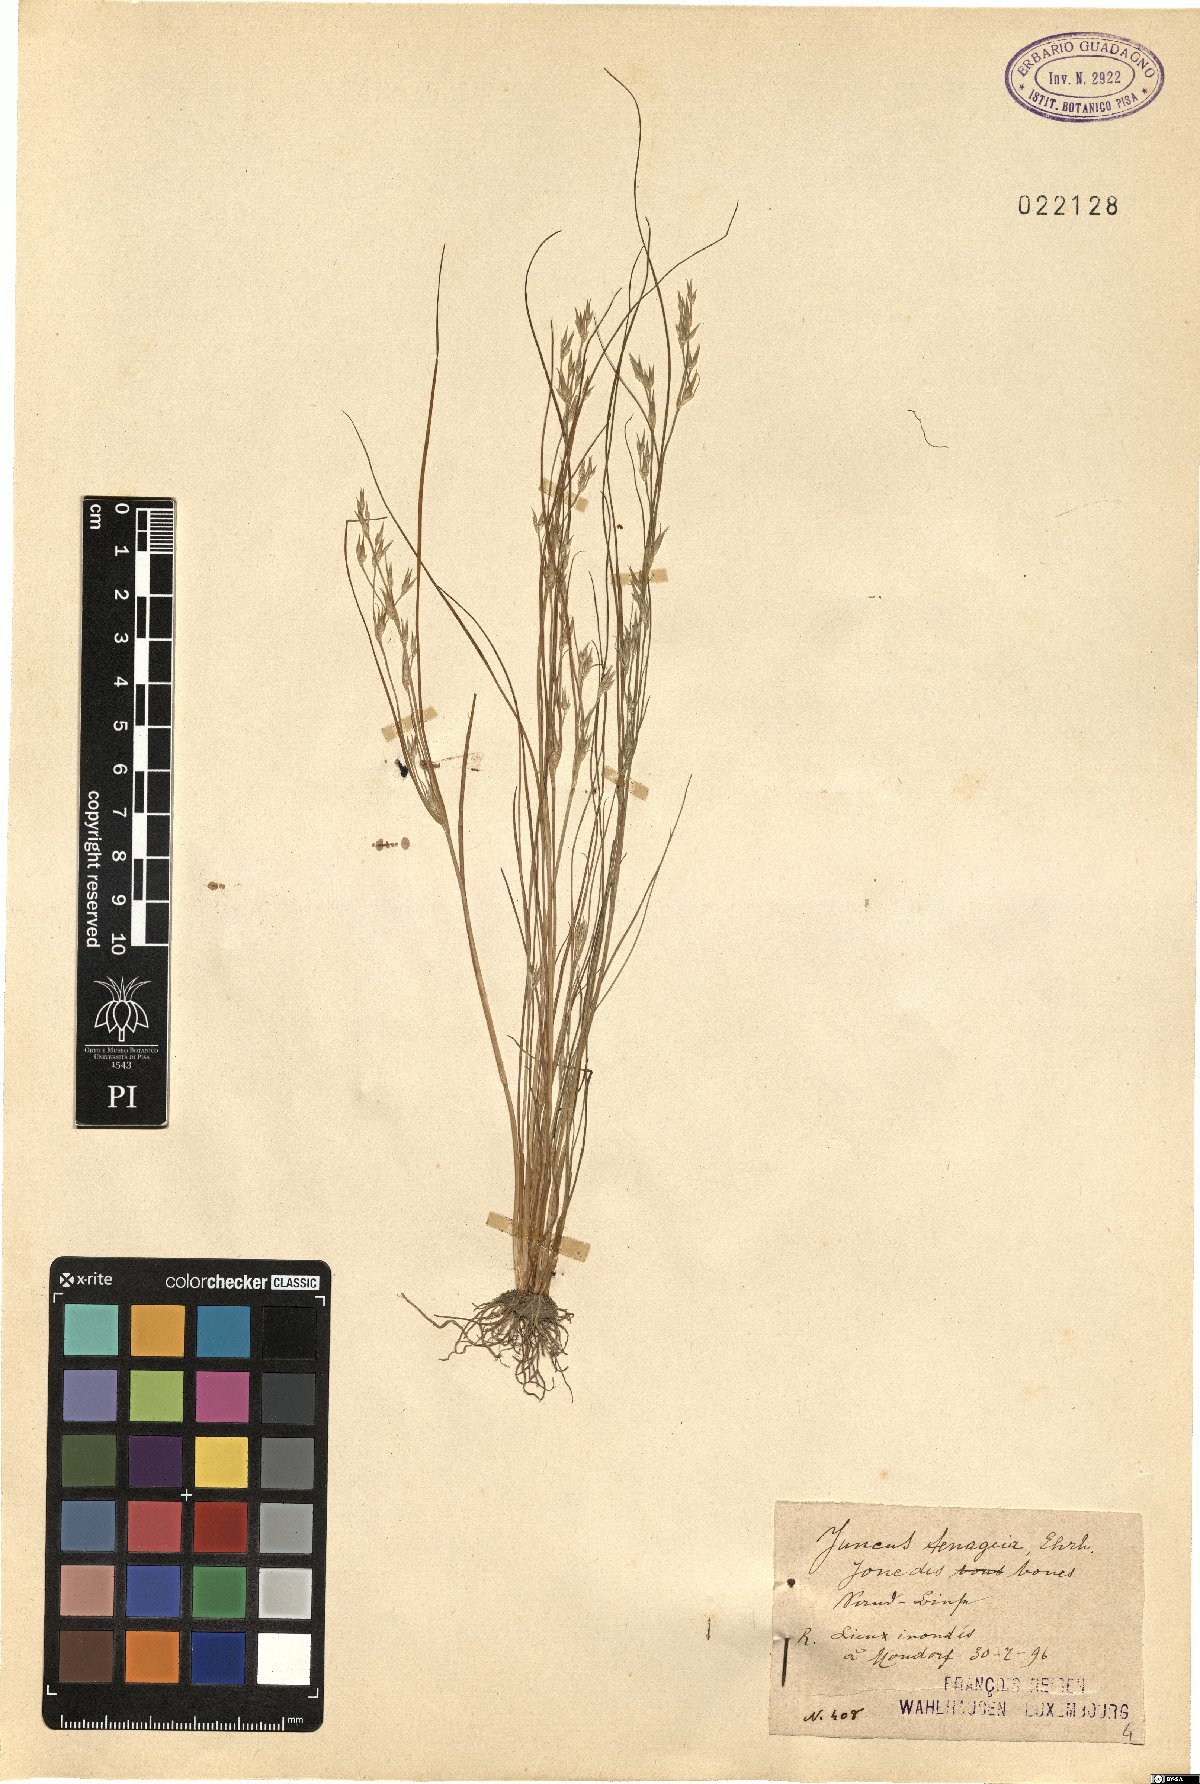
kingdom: Plantae
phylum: Tracheophyta
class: Liliopsida
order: Poales
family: Juncaceae
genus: Juncus
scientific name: Juncus tenageia
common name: Sand rush
